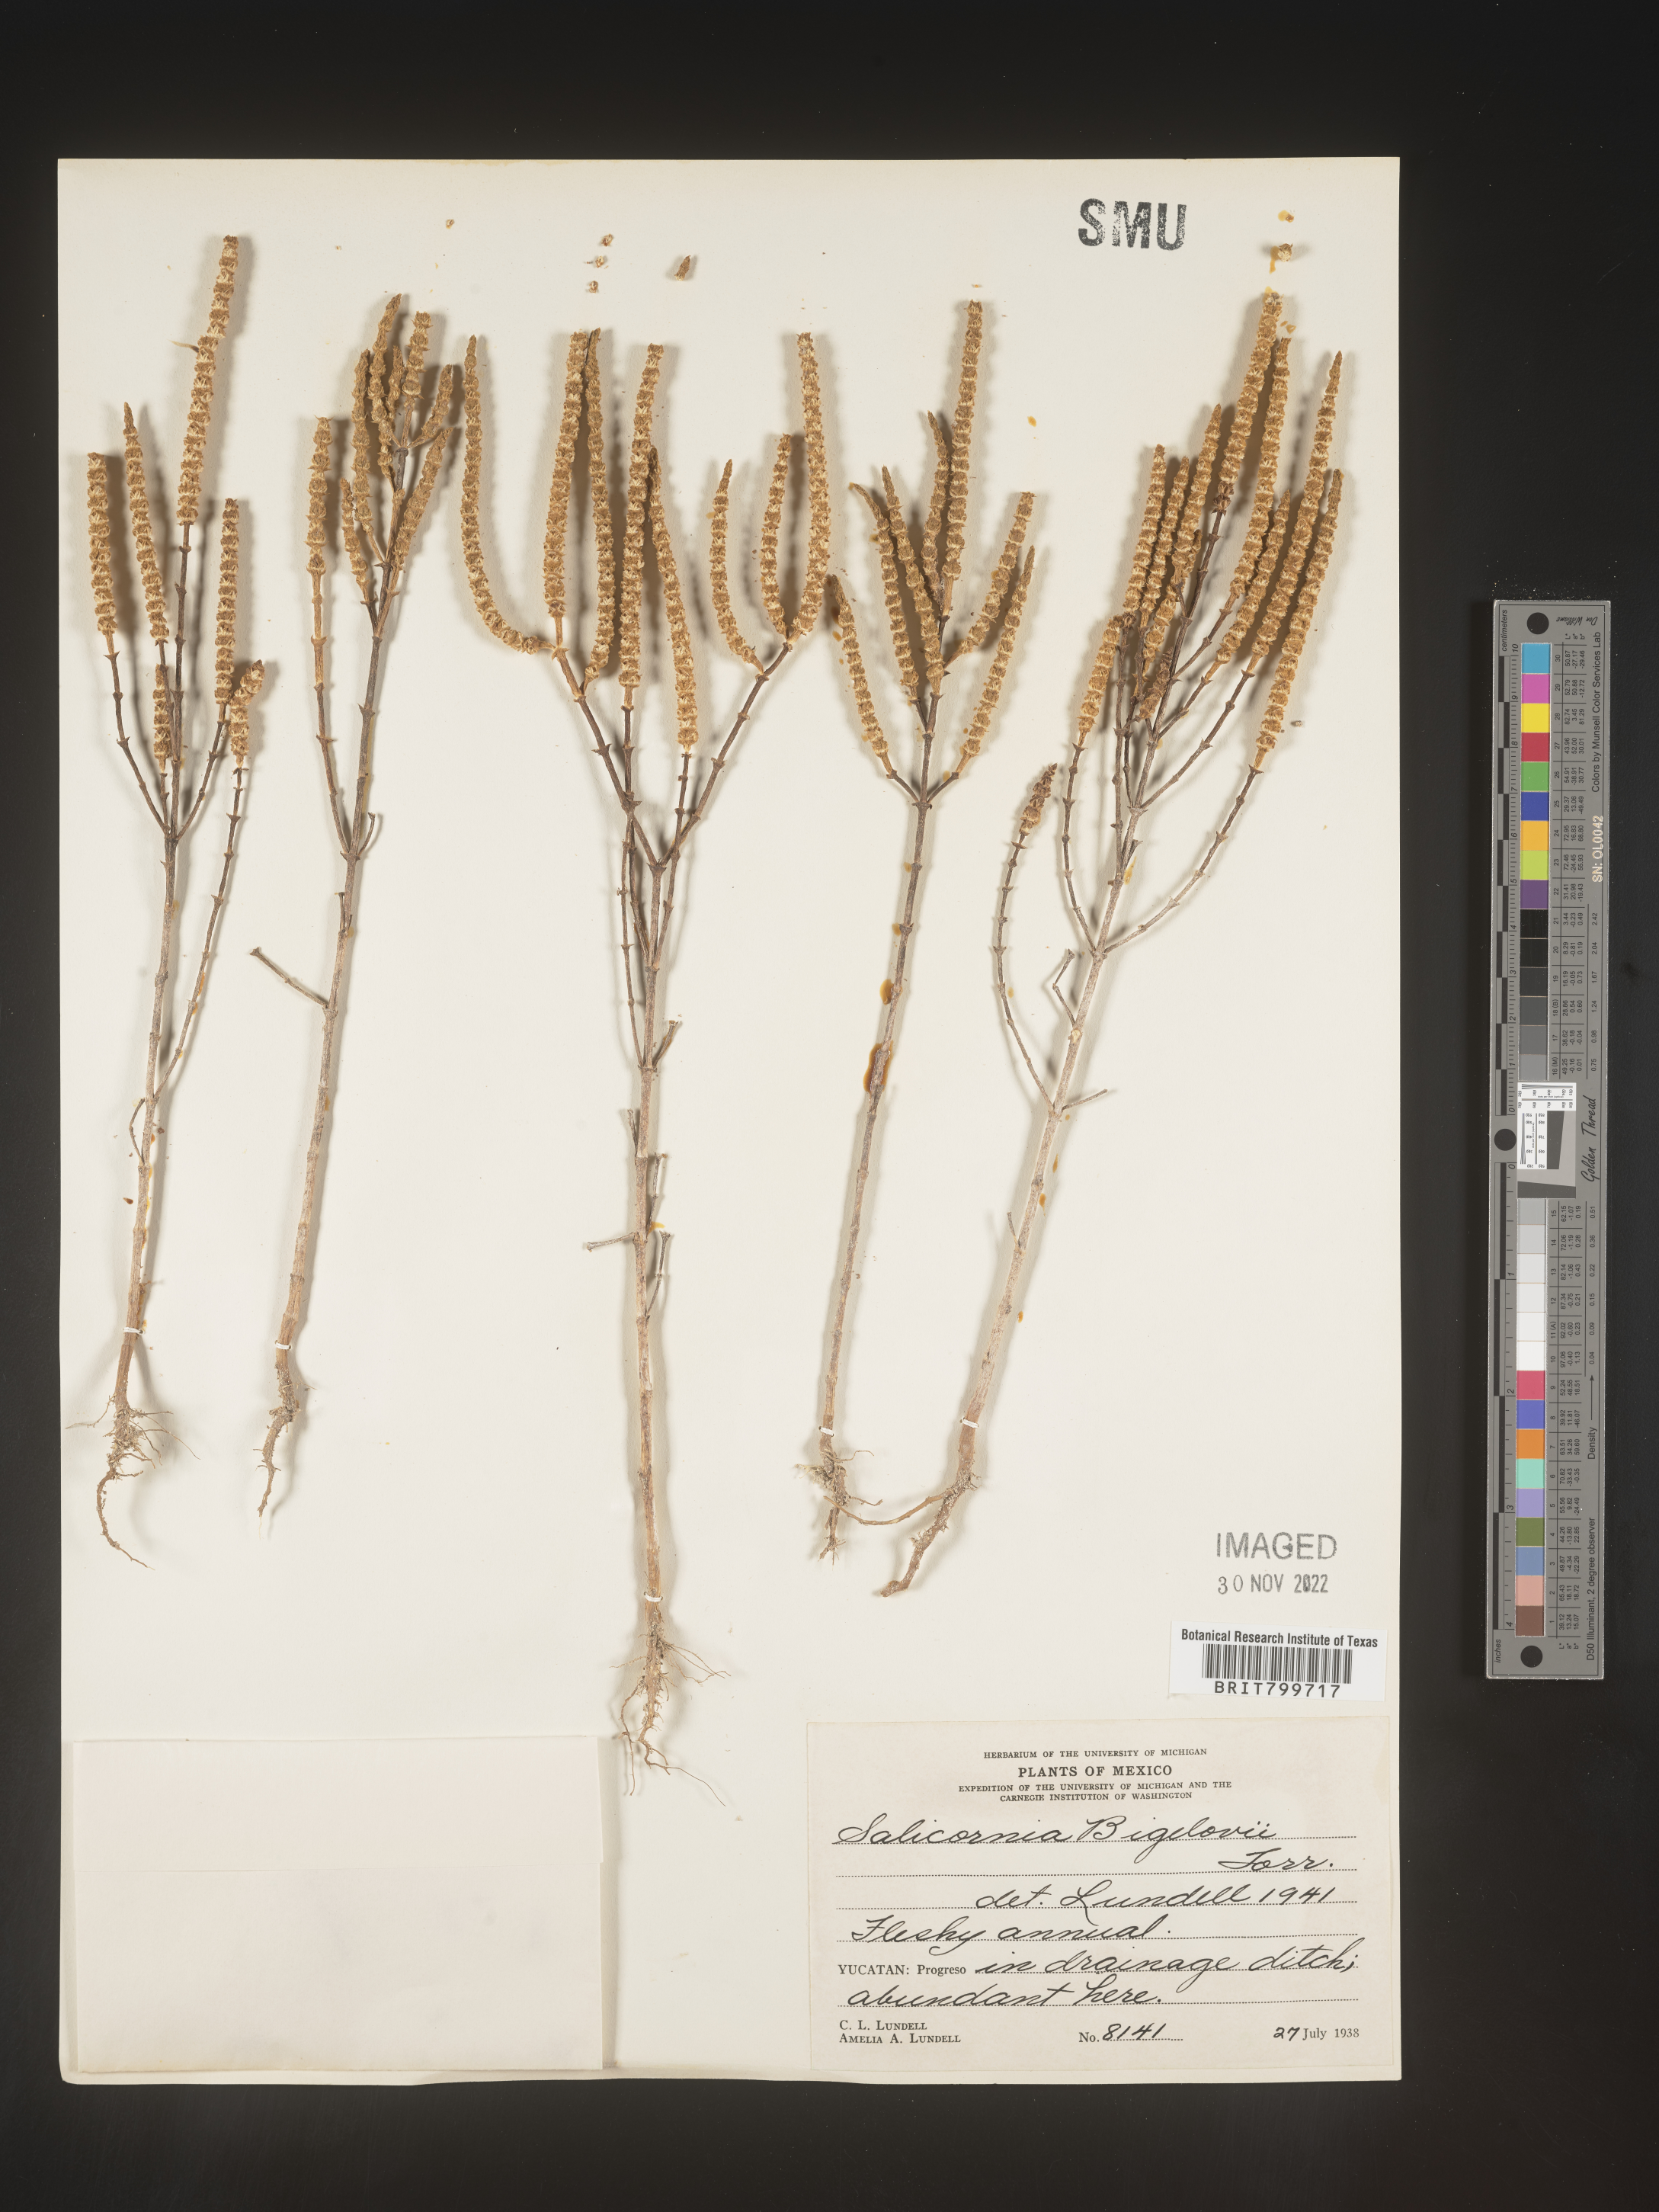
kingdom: Plantae
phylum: Tracheophyta
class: Magnoliopsida
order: Caryophyllales
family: Amaranthaceae
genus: Salicornia
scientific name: Salicornia
